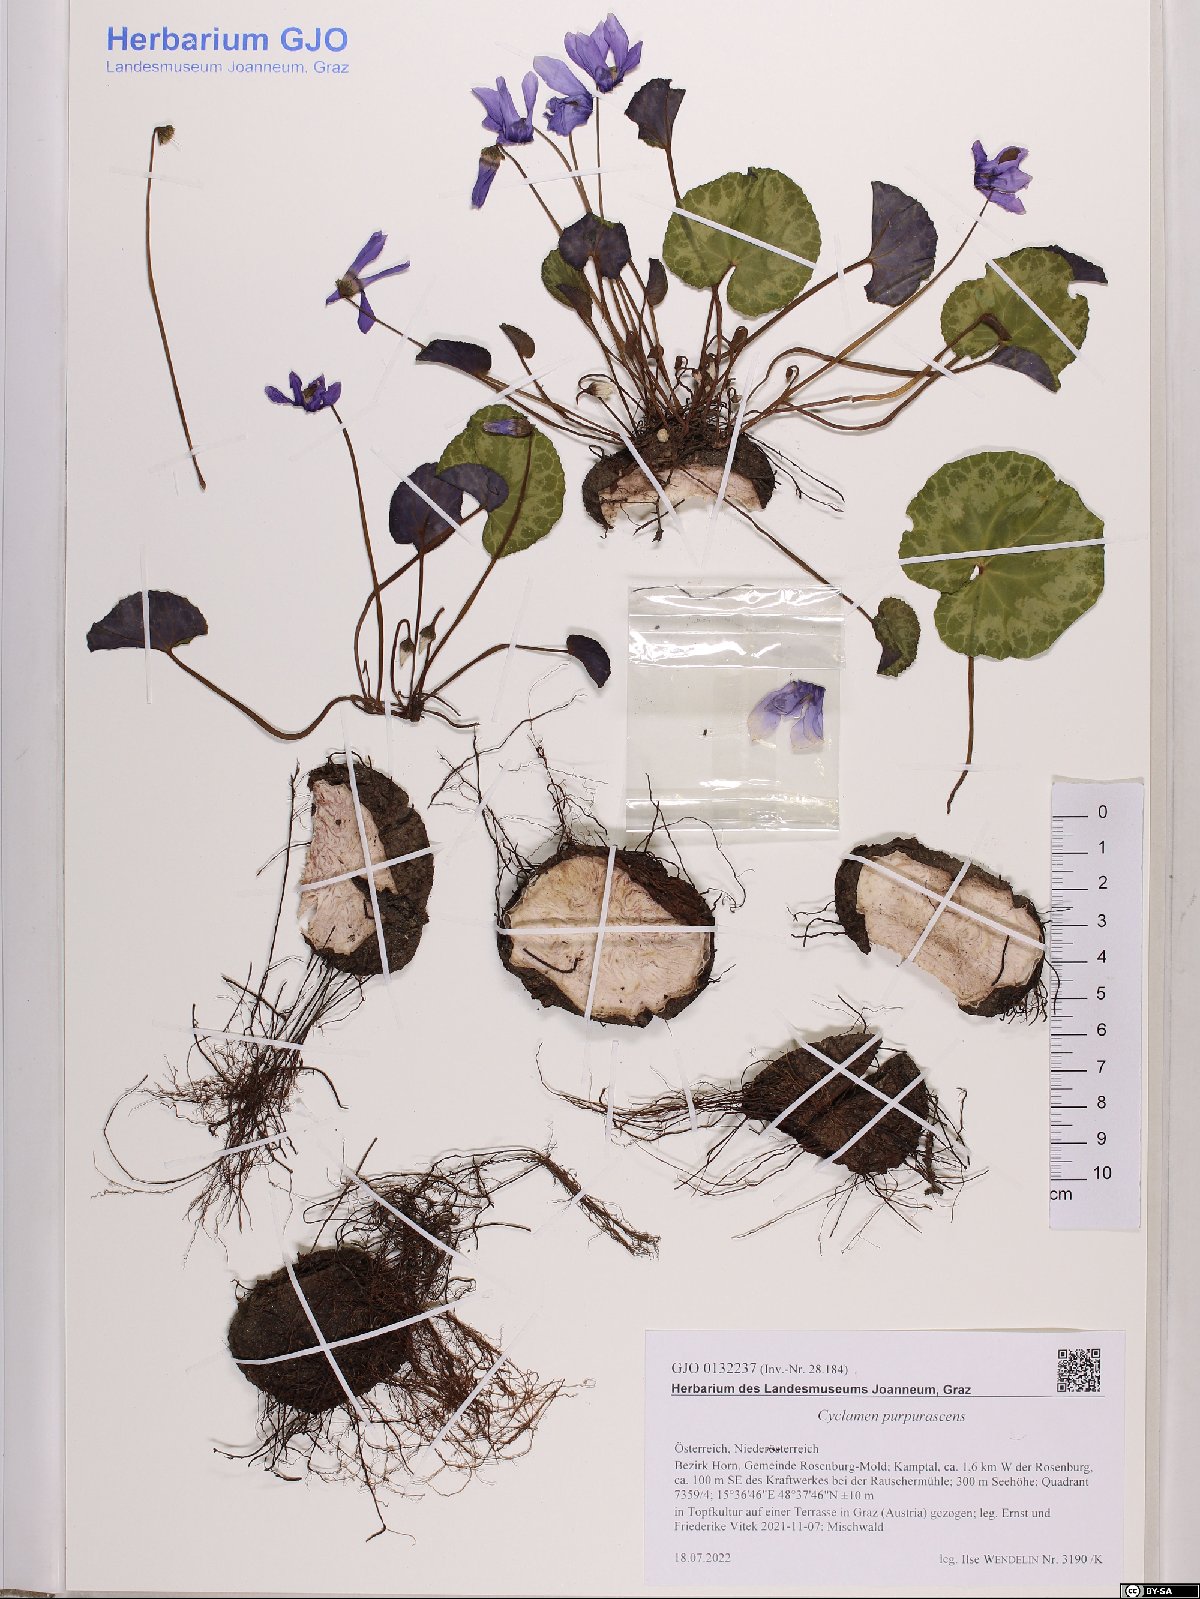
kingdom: Plantae
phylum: Tracheophyta
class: Magnoliopsida
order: Ericales
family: Primulaceae
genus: Cyclamen
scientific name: Cyclamen purpurascens
